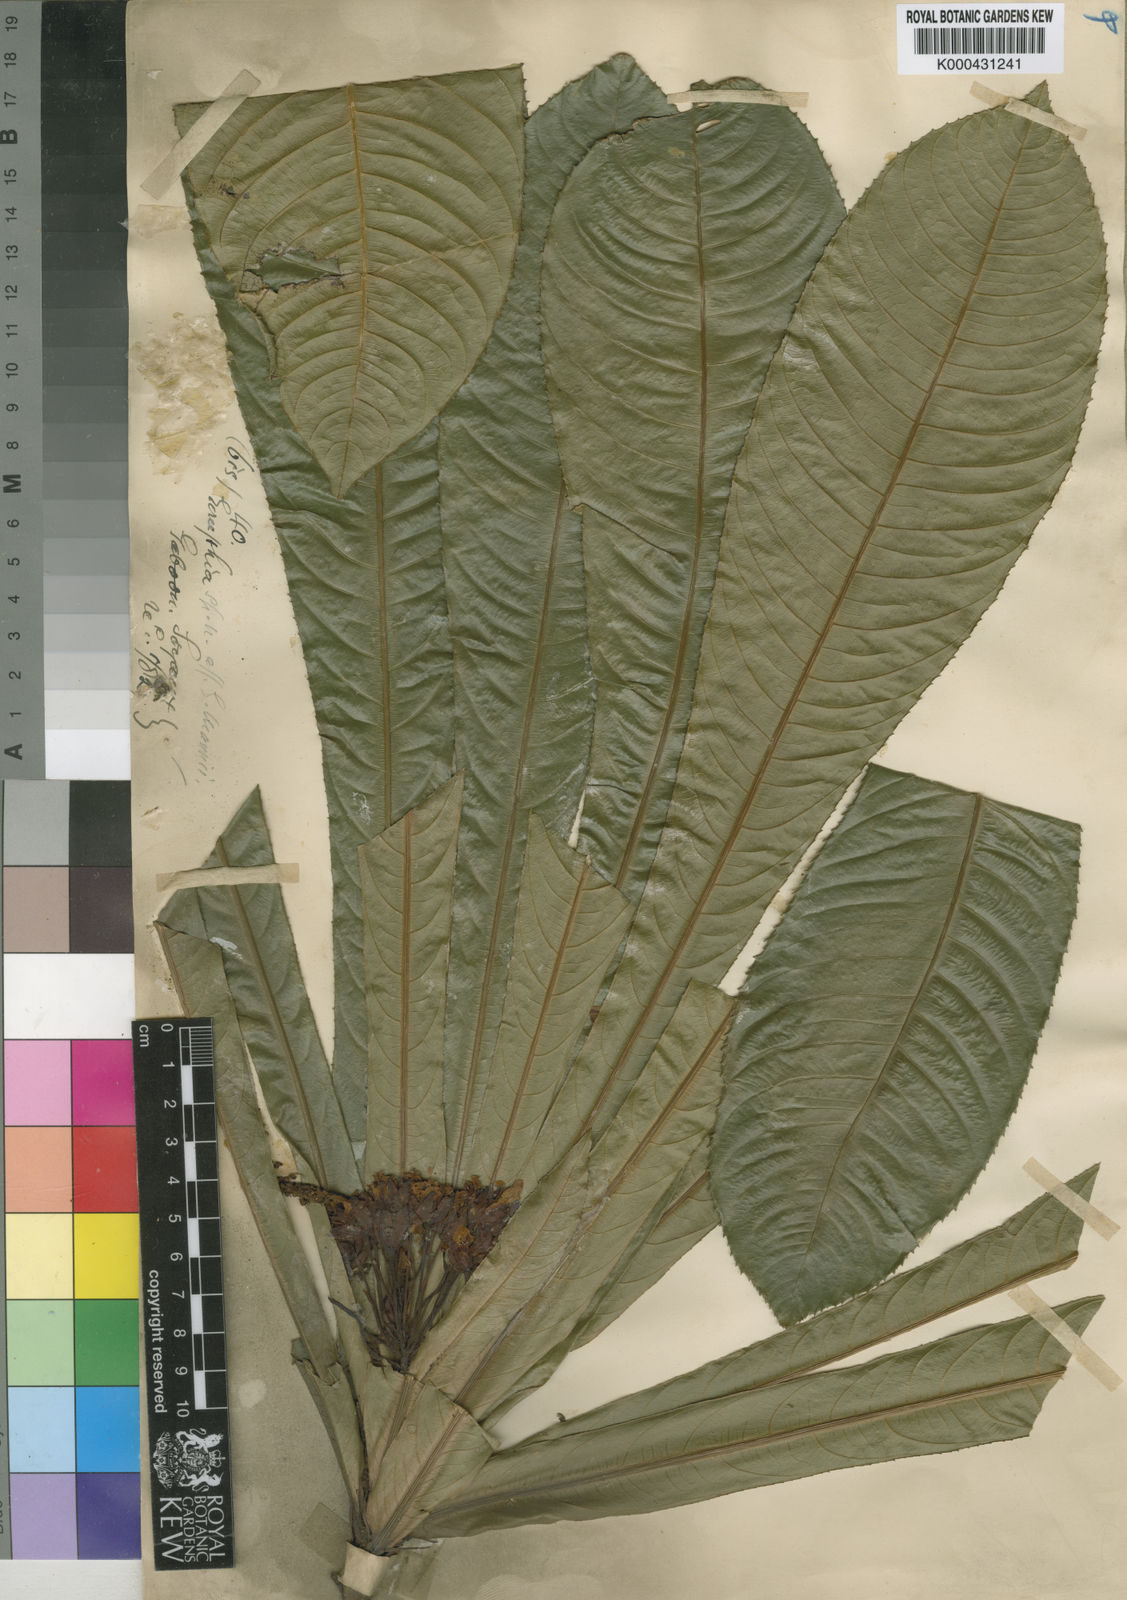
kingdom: Plantae
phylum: Tracheophyta
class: Magnoliopsida
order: Malpighiales
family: Ochnaceae
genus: Campylospermum
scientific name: Campylospermum duparquetianum
